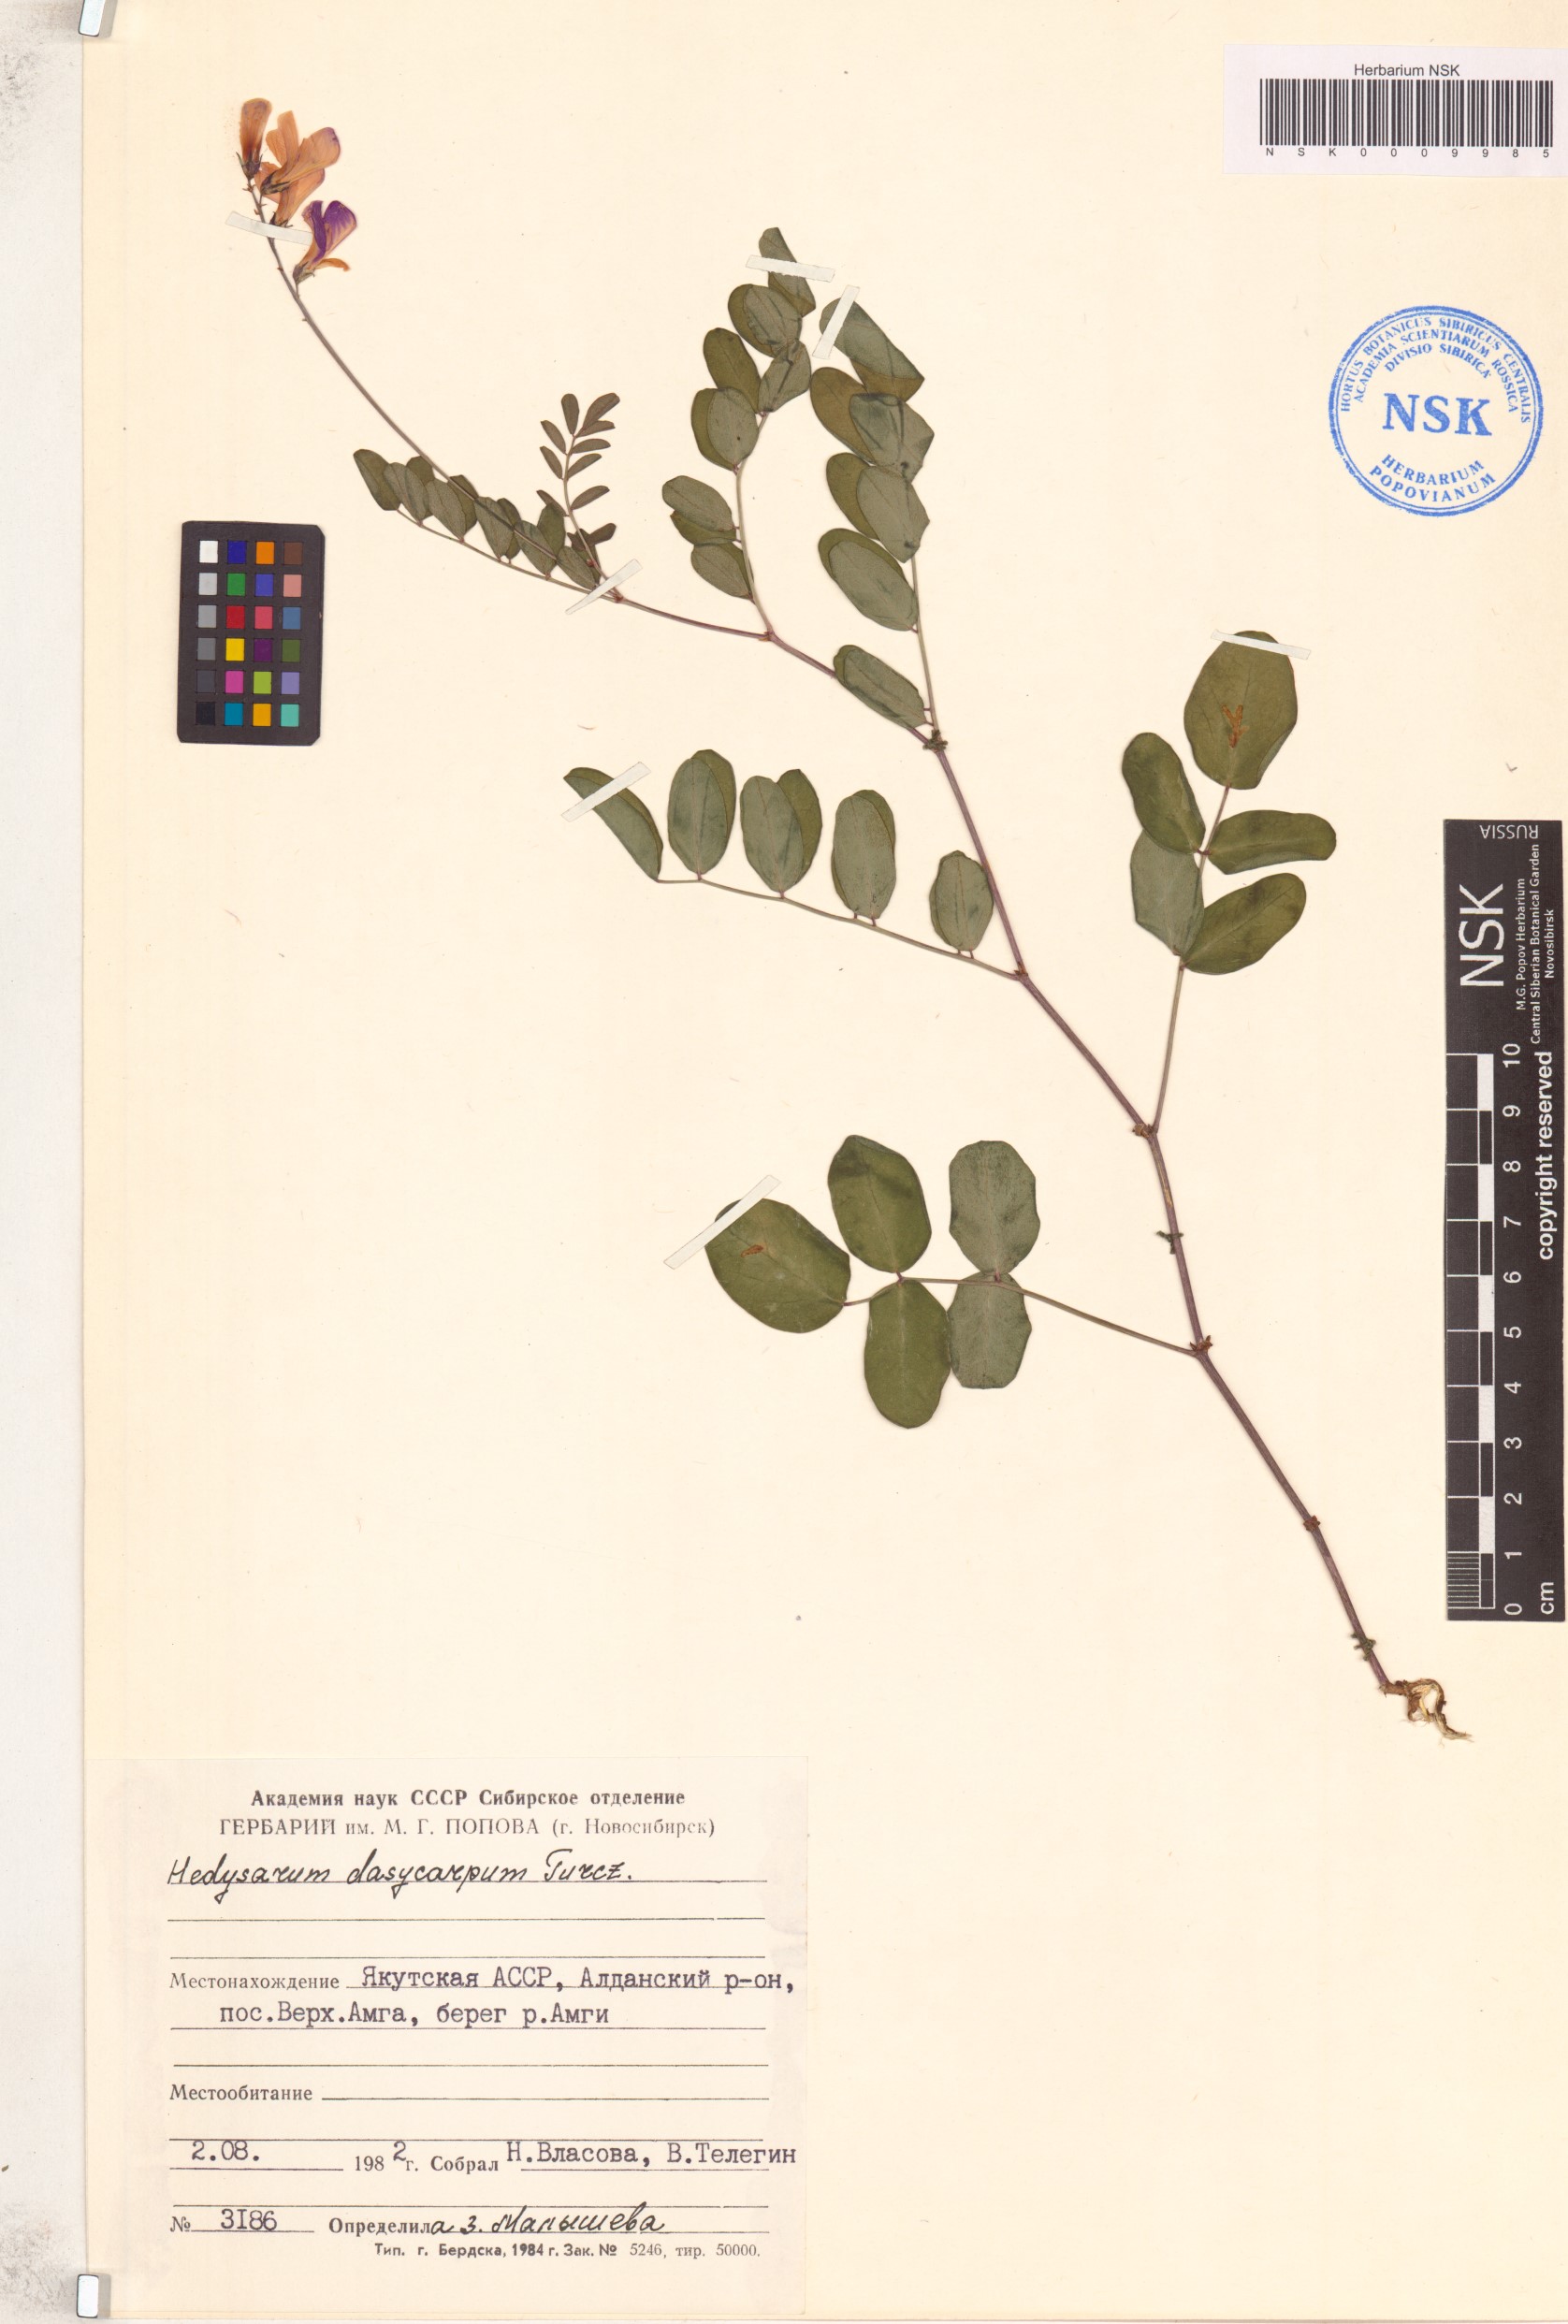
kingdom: Plantae
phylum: Tracheophyta
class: Magnoliopsida
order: Fabales
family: Fabaceae
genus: Hedysarum
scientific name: Hedysarum dasycarpum
